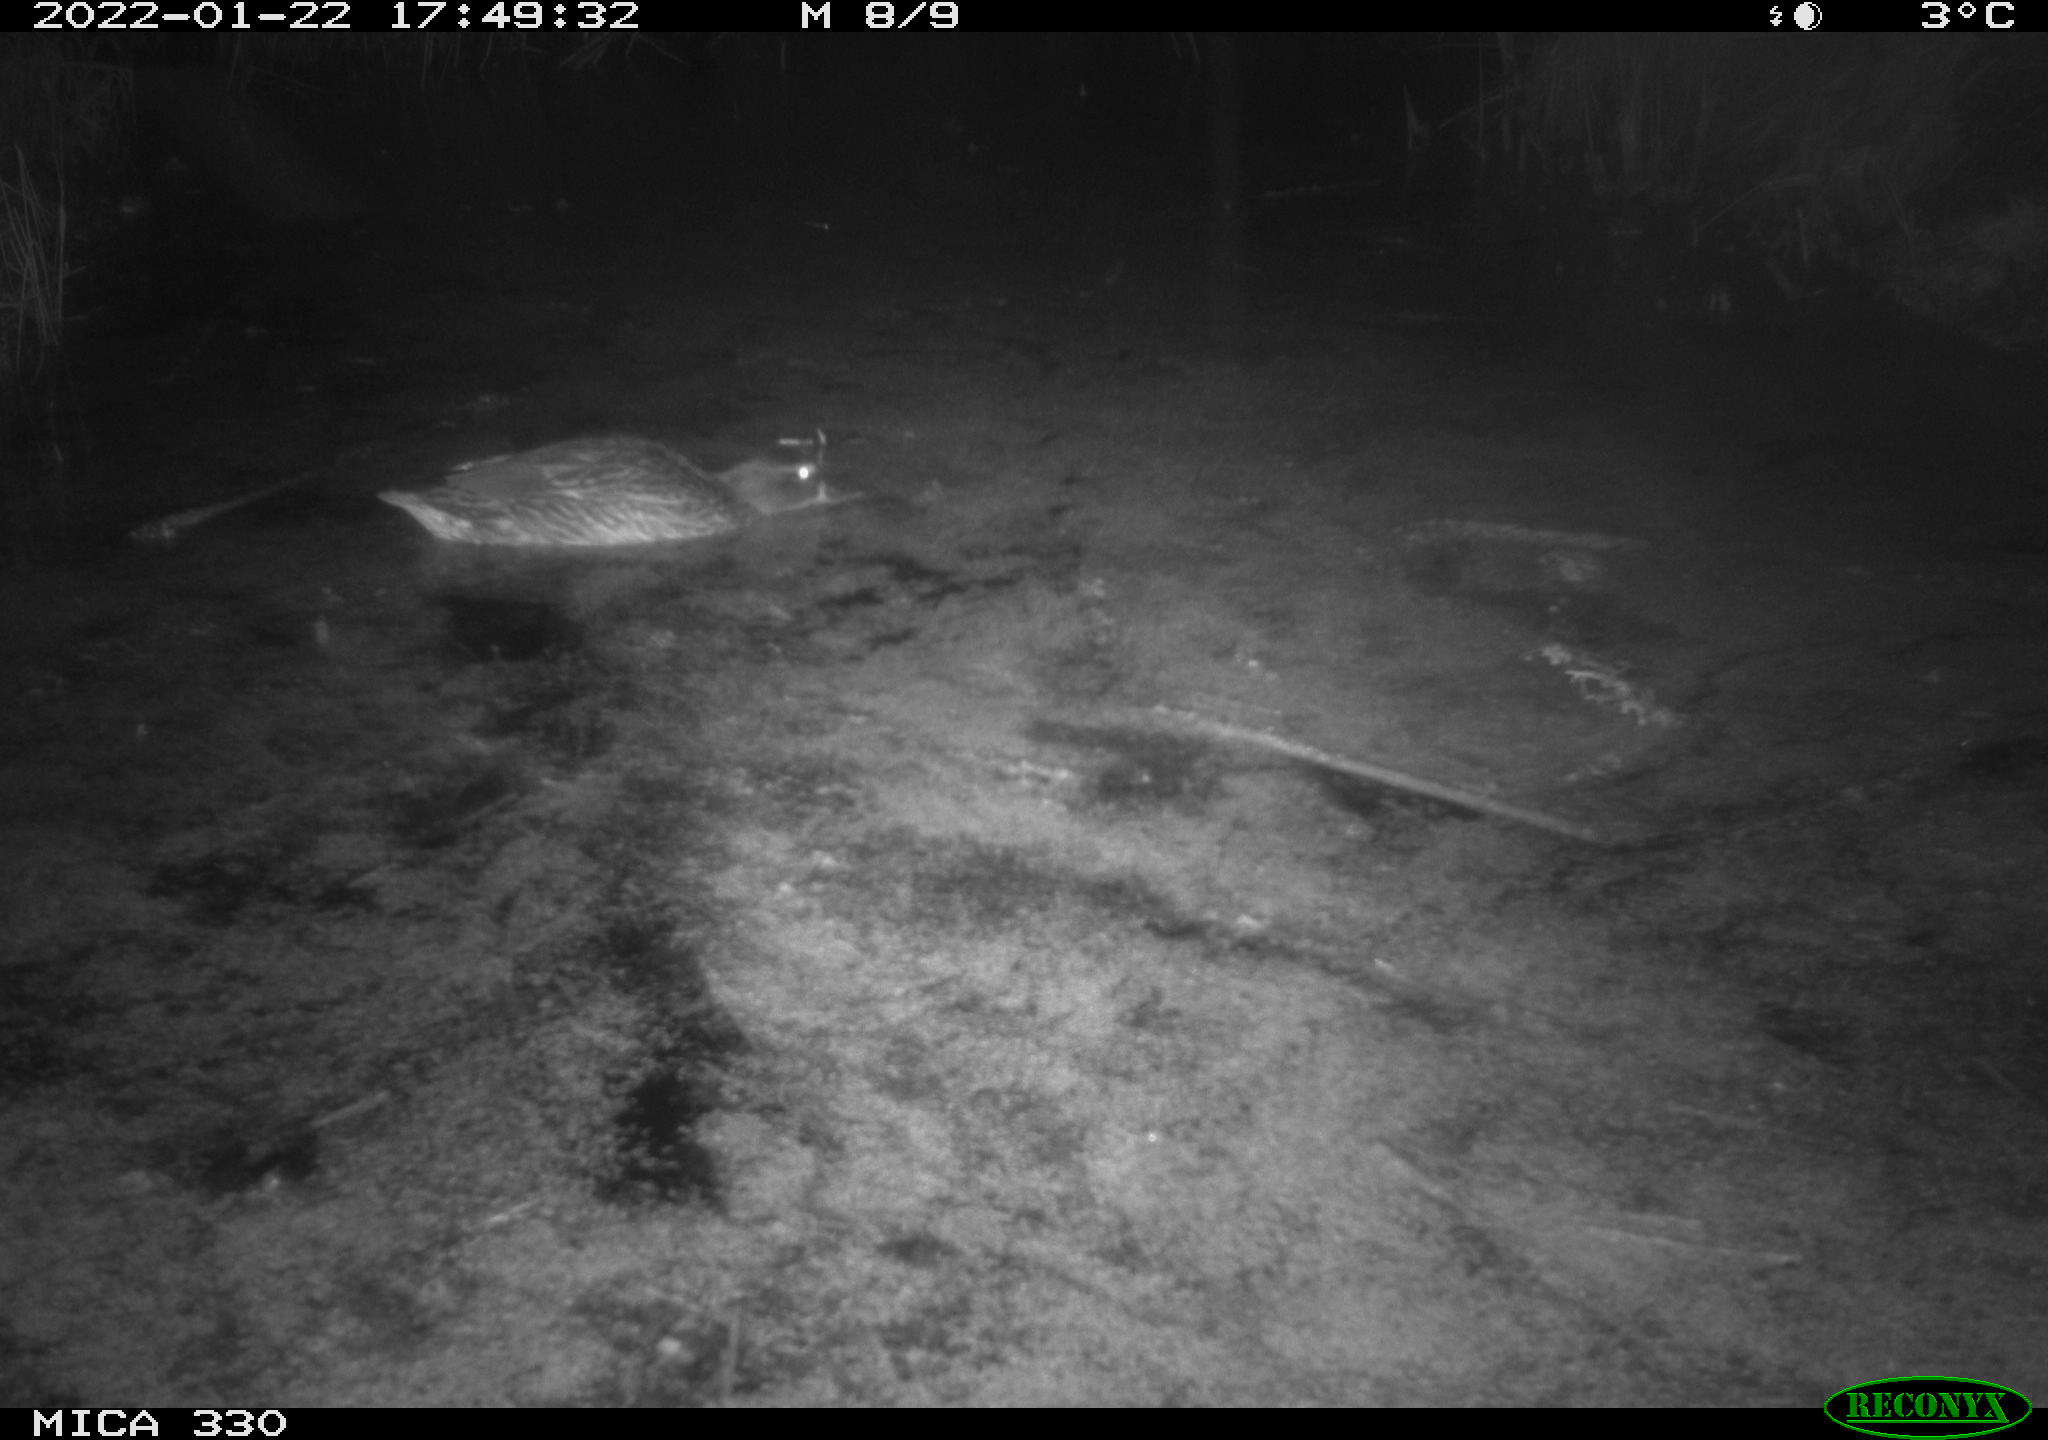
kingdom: Animalia
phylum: Chordata
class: Aves
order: Anseriformes
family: Anatidae
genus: Anas
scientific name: Anas platyrhynchos
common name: Mallard
